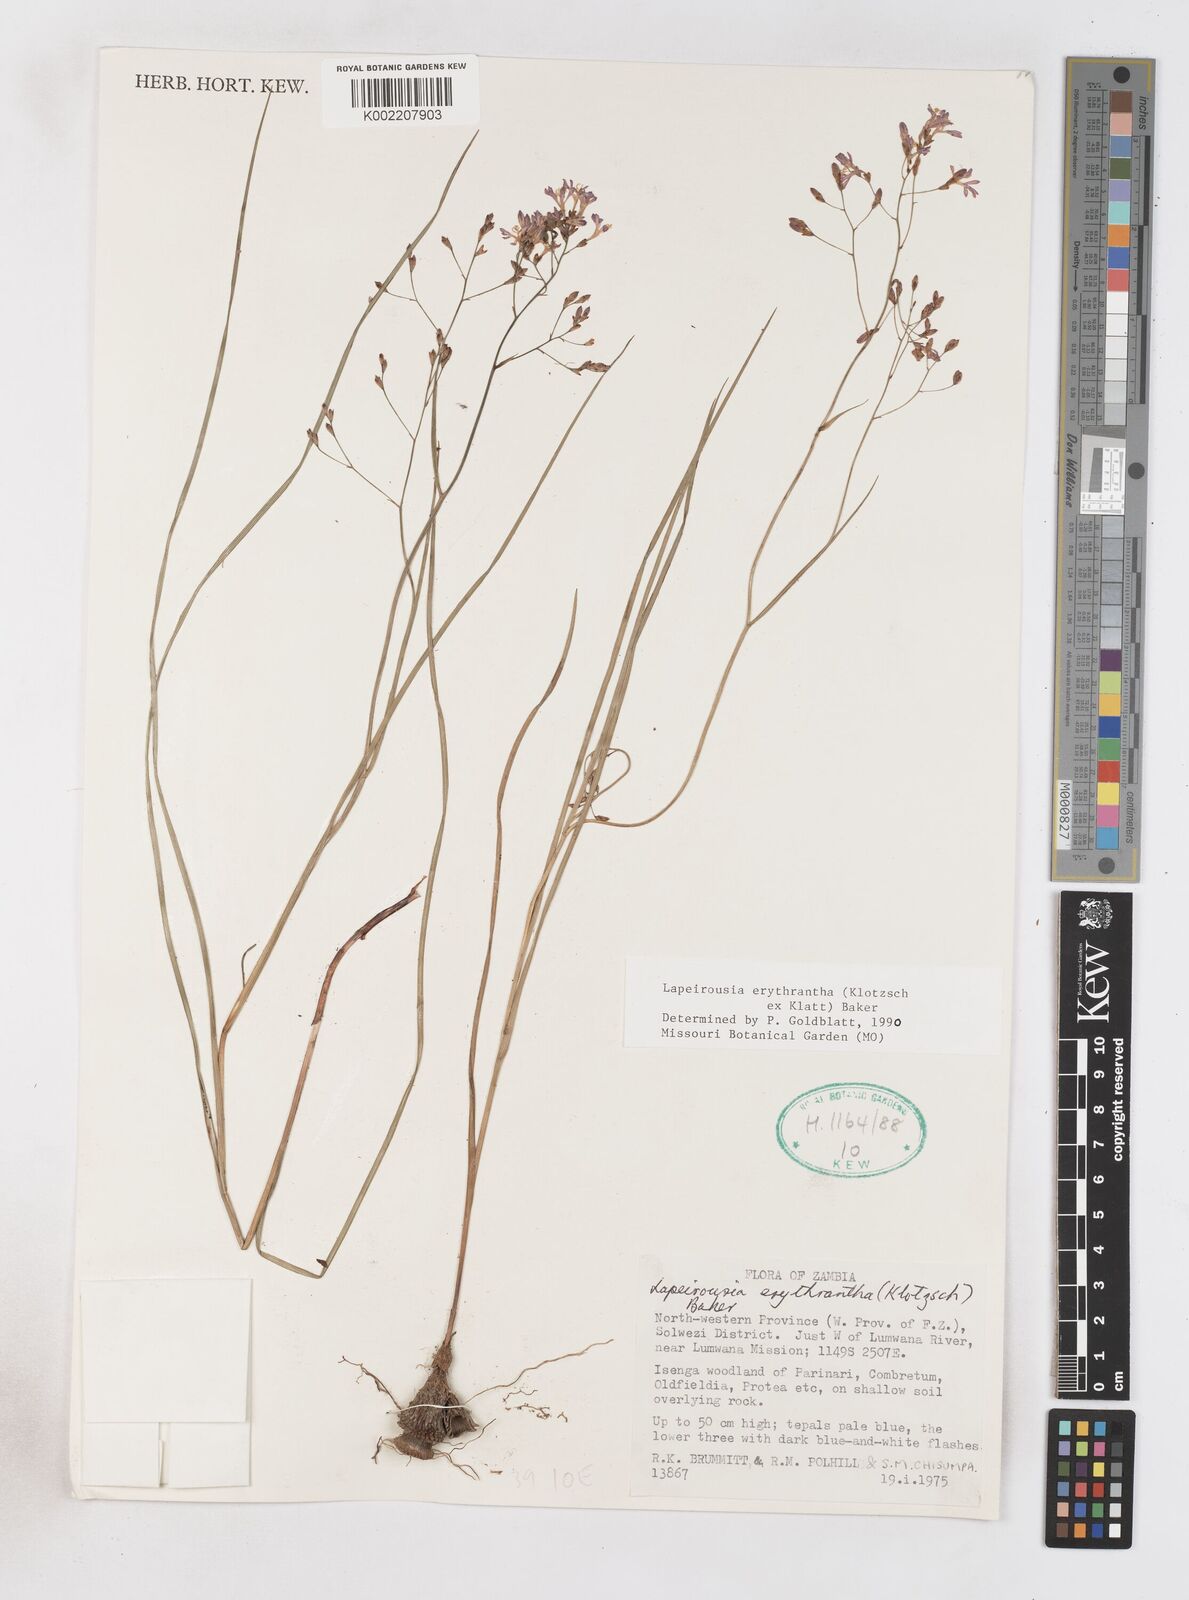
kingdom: Plantae
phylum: Tracheophyta
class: Liliopsida
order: Asparagales
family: Iridaceae
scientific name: Iridaceae
